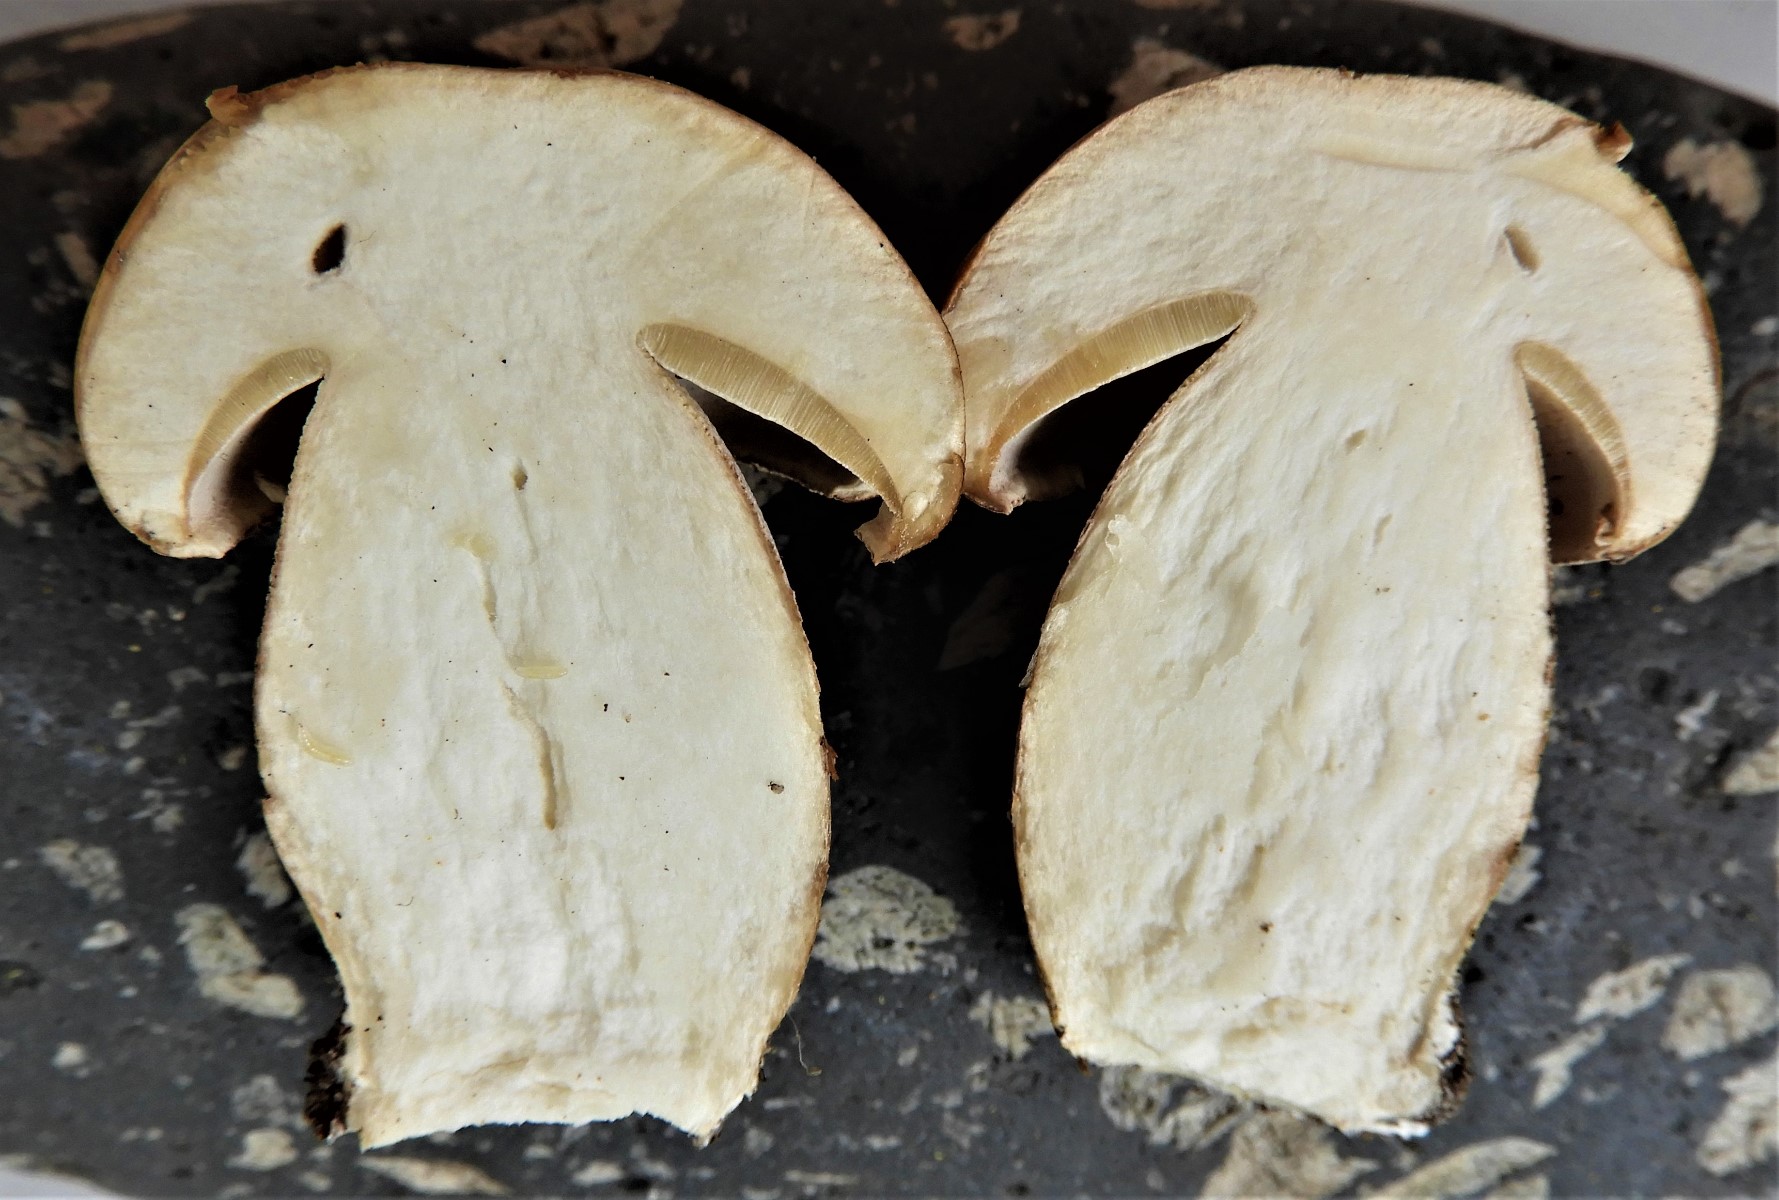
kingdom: Fungi
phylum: Basidiomycota
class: Agaricomycetes
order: Boletales
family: Boletaceae
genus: Boletus
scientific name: Boletus reticulatus
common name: sommer-rørhat
